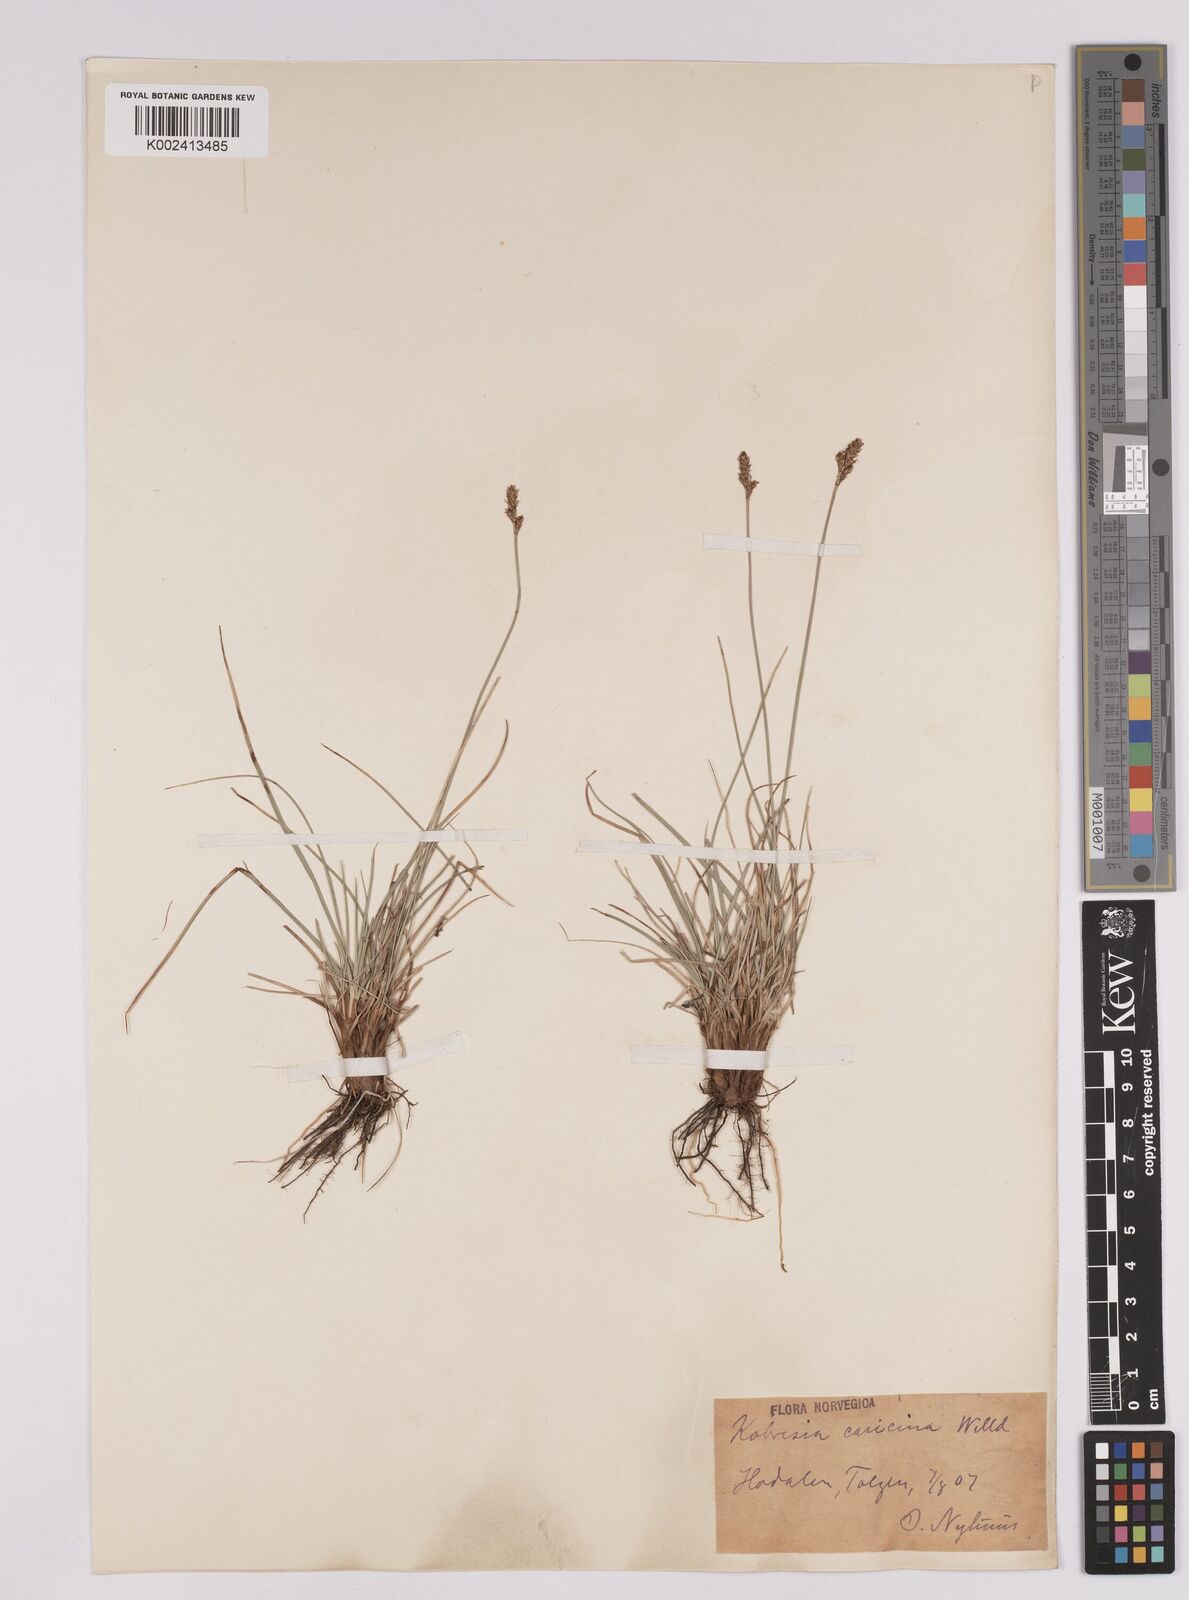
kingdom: Plantae
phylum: Tracheophyta
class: Liliopsida
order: Poales
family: Cyperaceae
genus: Carex
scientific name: Carex simpliciuscula
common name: Simple bog sedge
